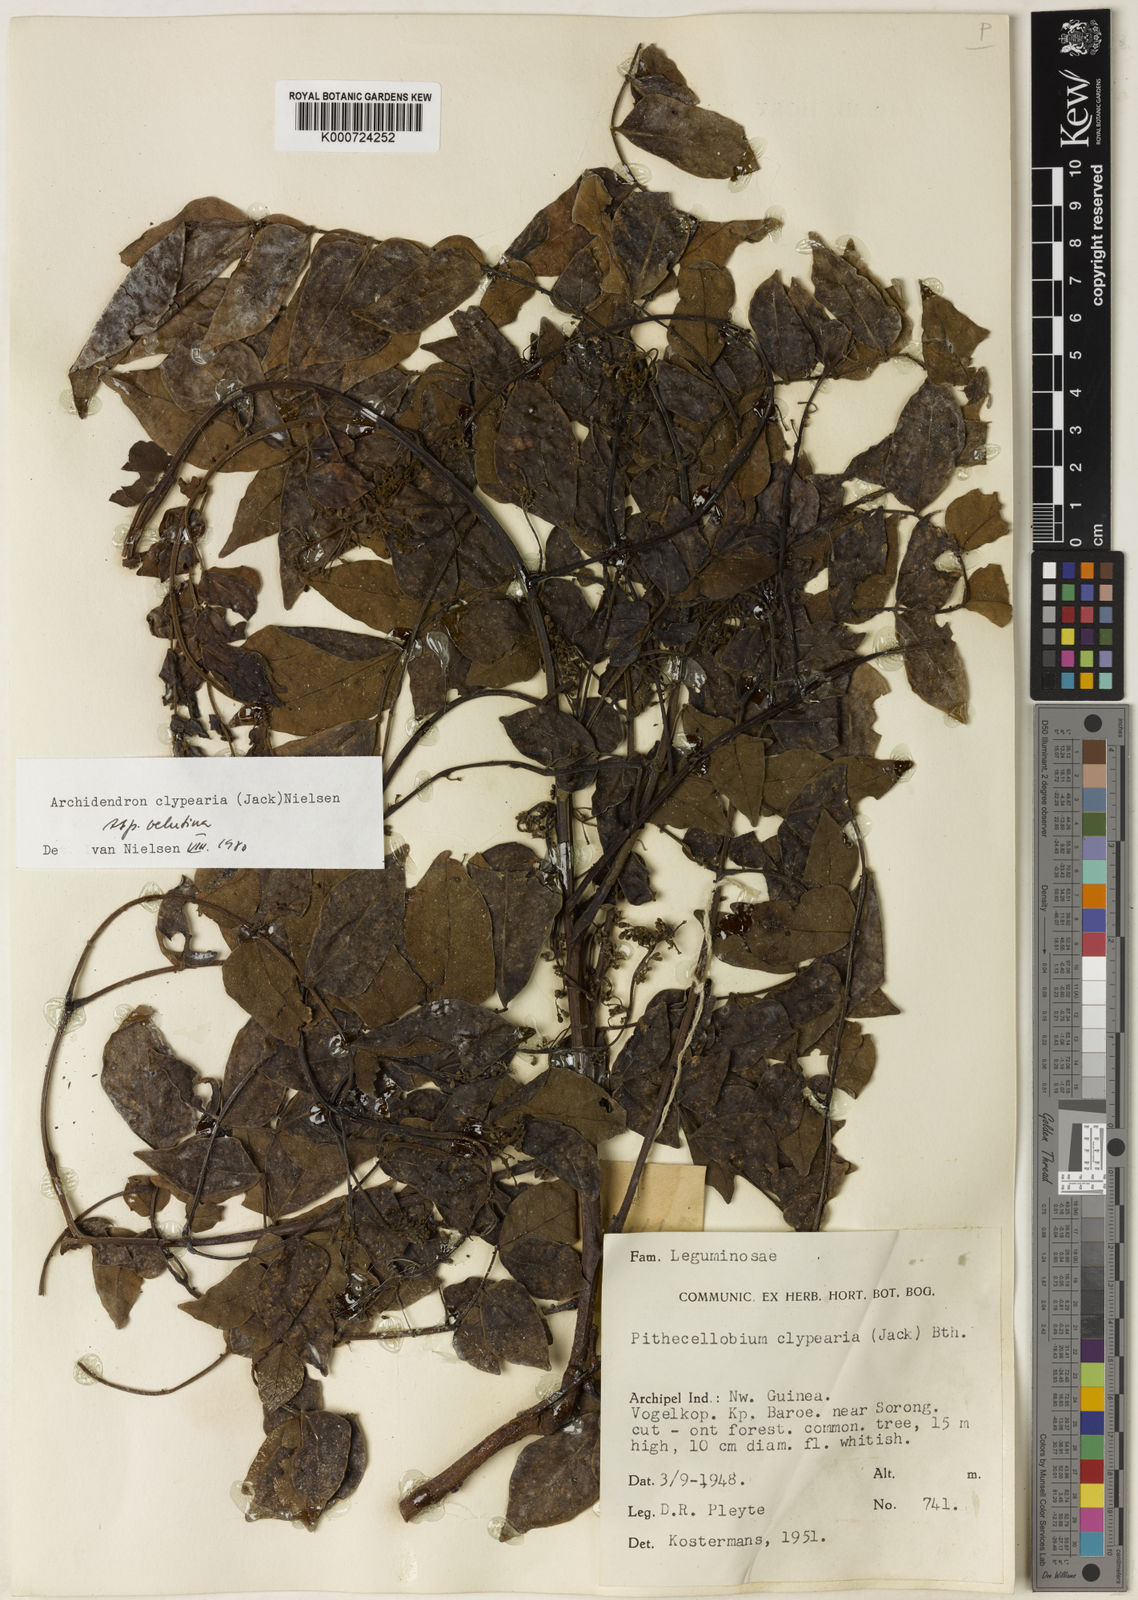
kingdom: Plantae
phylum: Tracheophyta
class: Magnoliopsida
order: Fabales
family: Fabaceae
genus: Archidendron
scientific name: Archidendron clypearia
